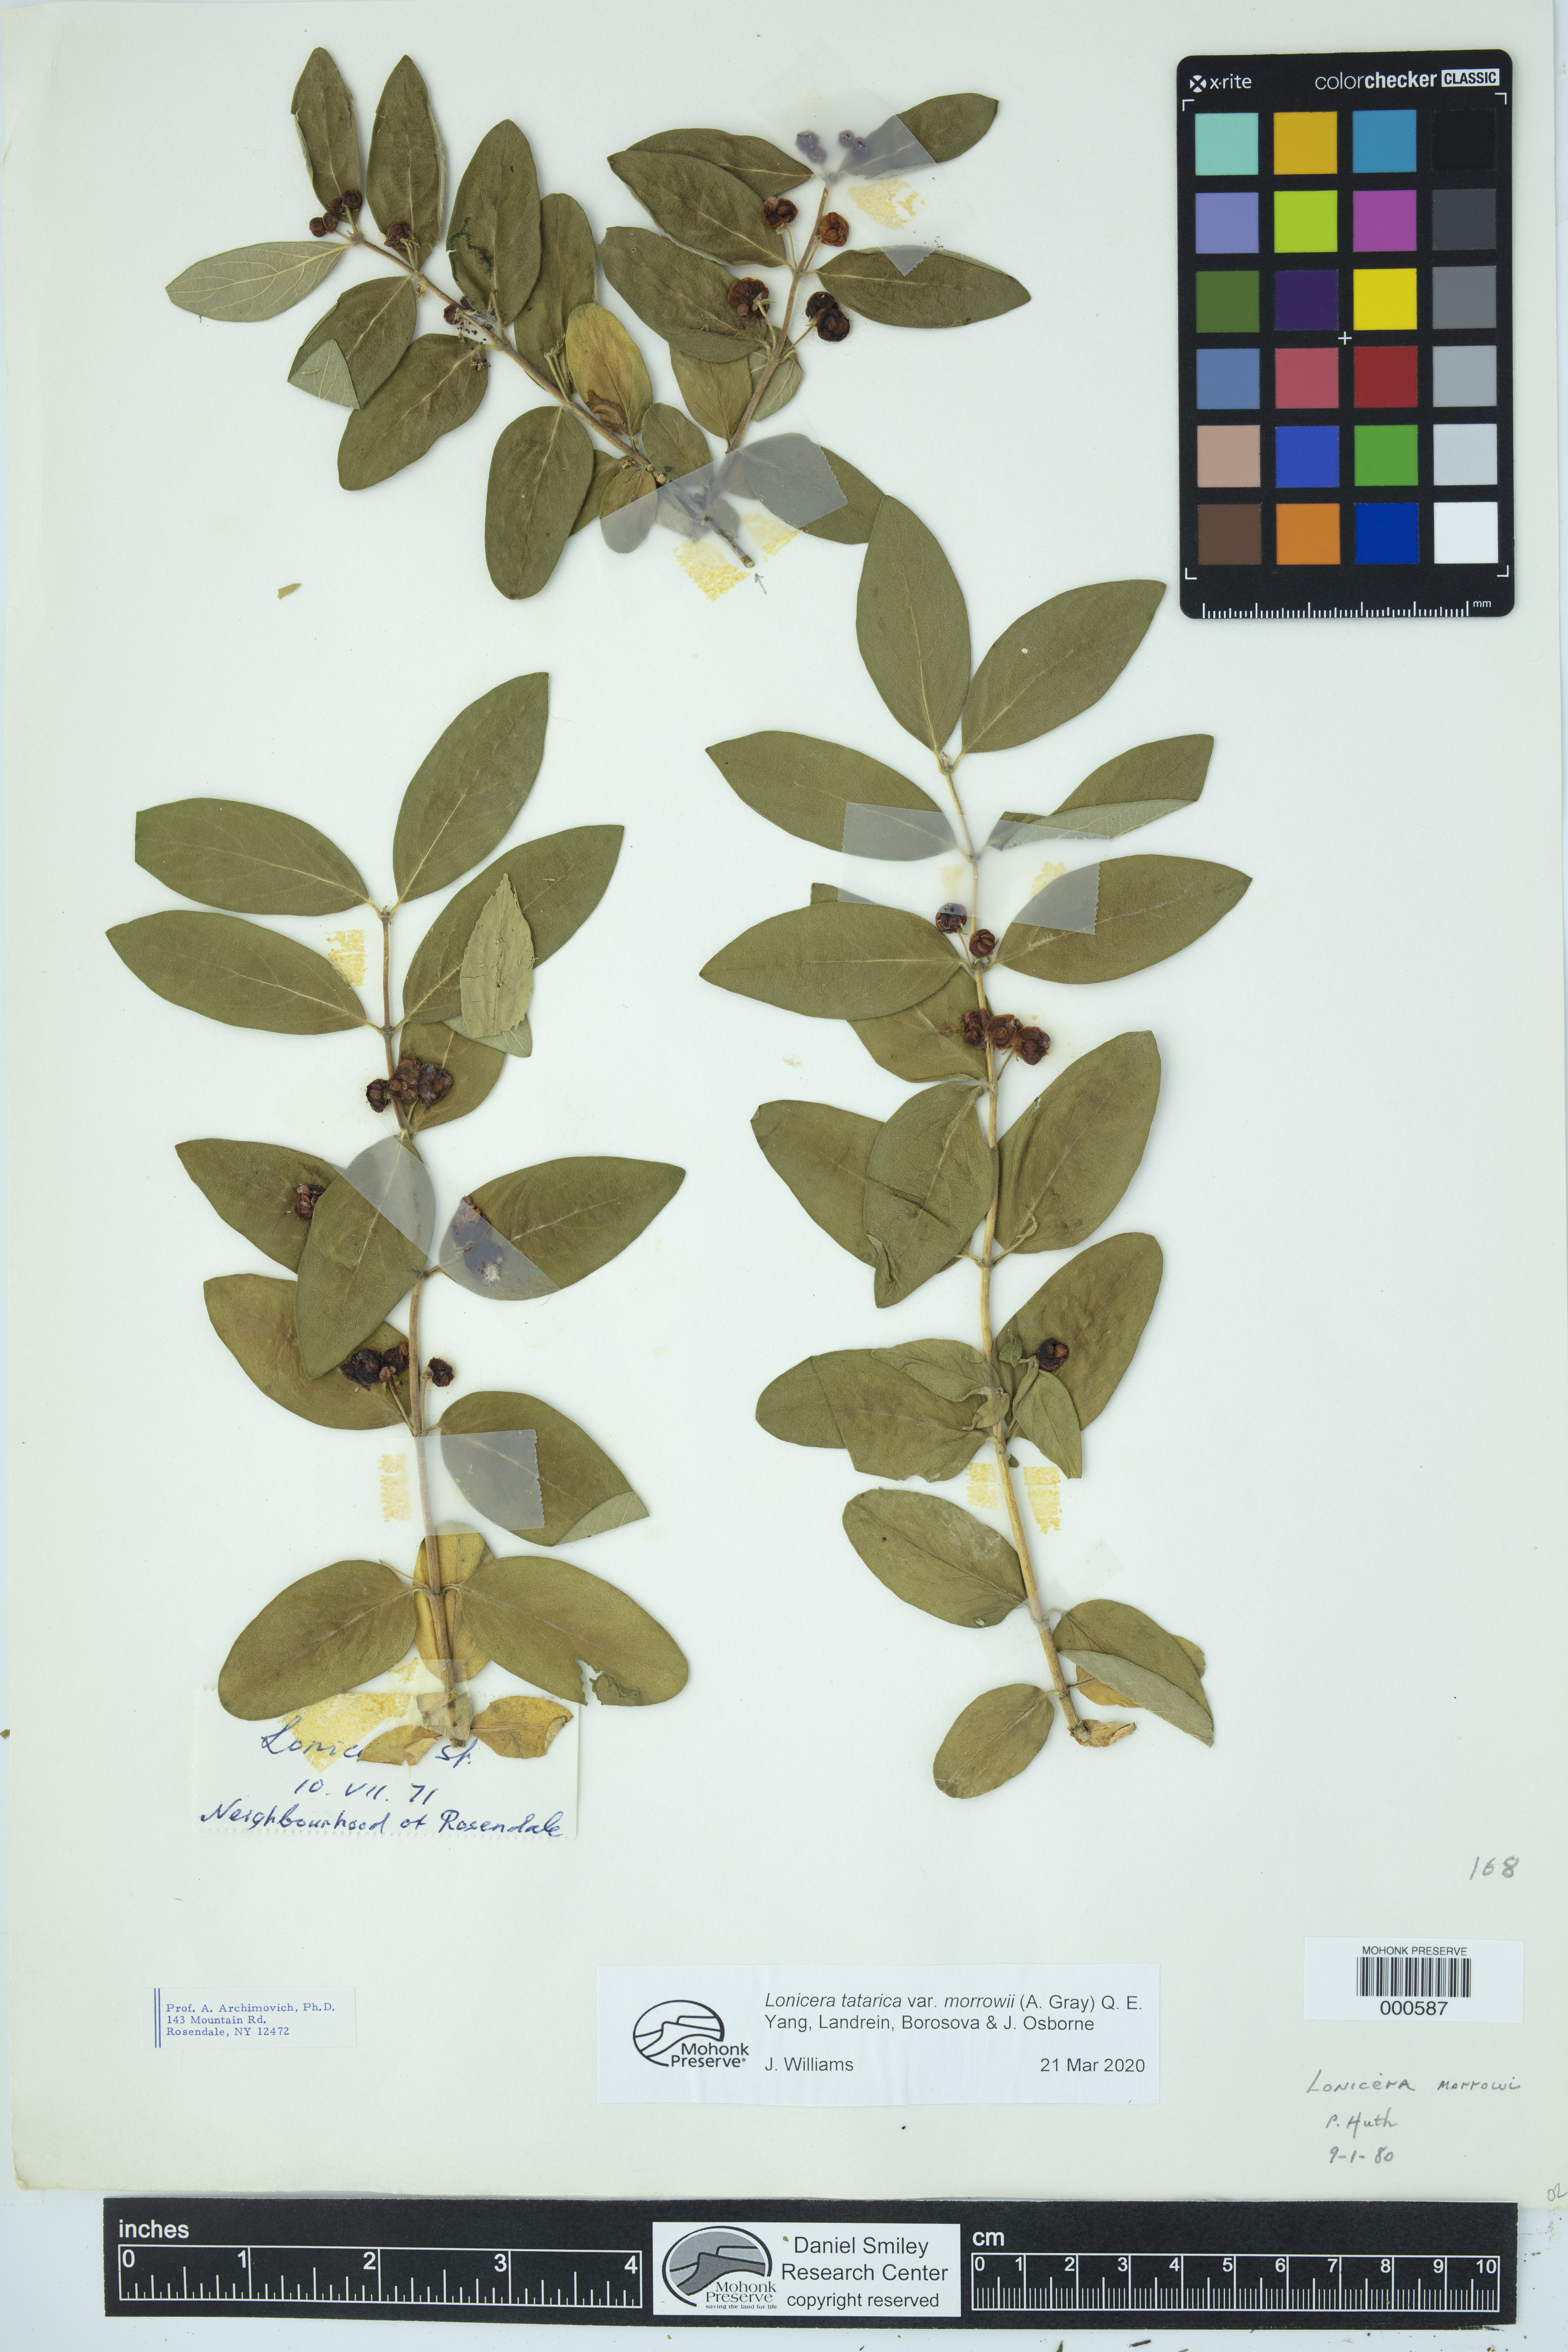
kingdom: Plantae
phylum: Tracheophyta
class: Magnoliopsida
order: Dipsacales
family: Caprifoliaceae
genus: Lonicera
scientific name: Lonicera morrowii
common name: Morrow's honeysuckle
